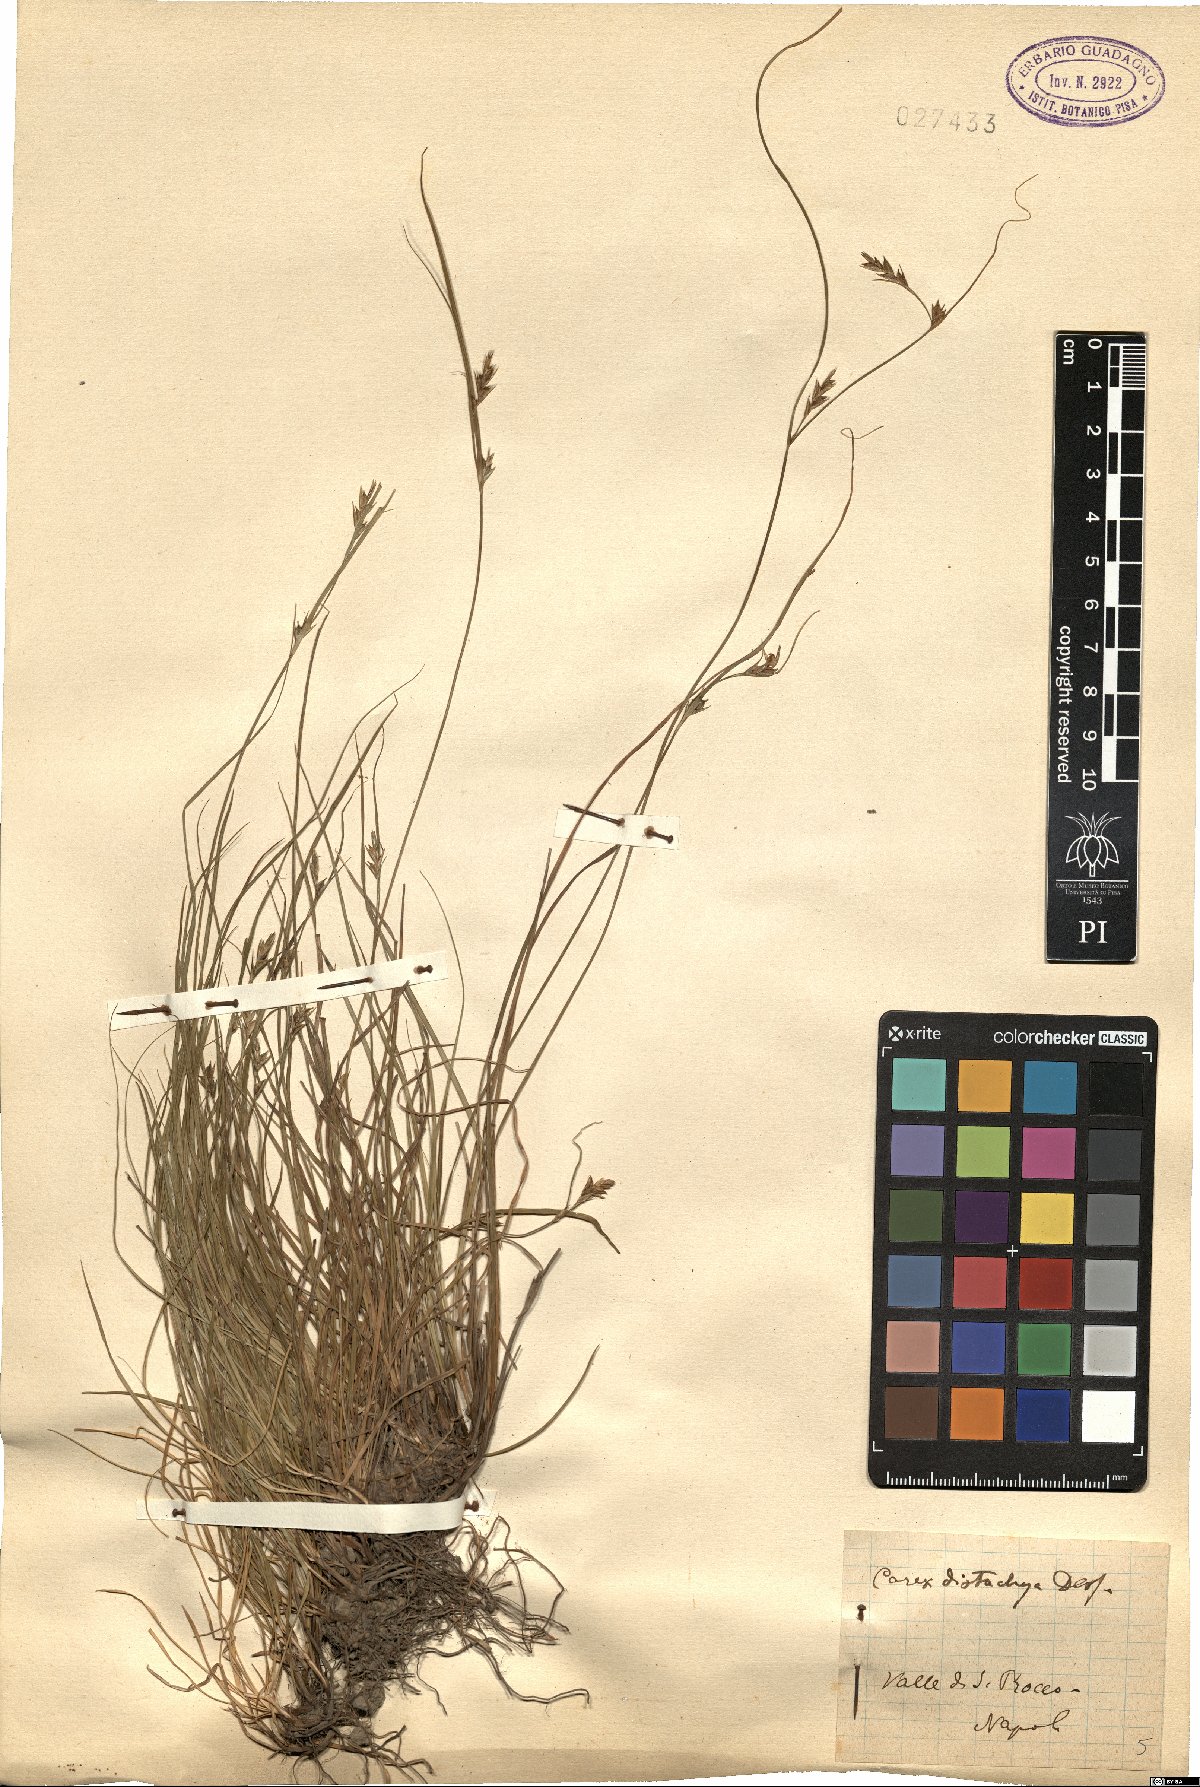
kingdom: Plantae
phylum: Tracheophyta
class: Liliopsida
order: Poales
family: Cyperaceae
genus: Carex
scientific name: Carex distachya
